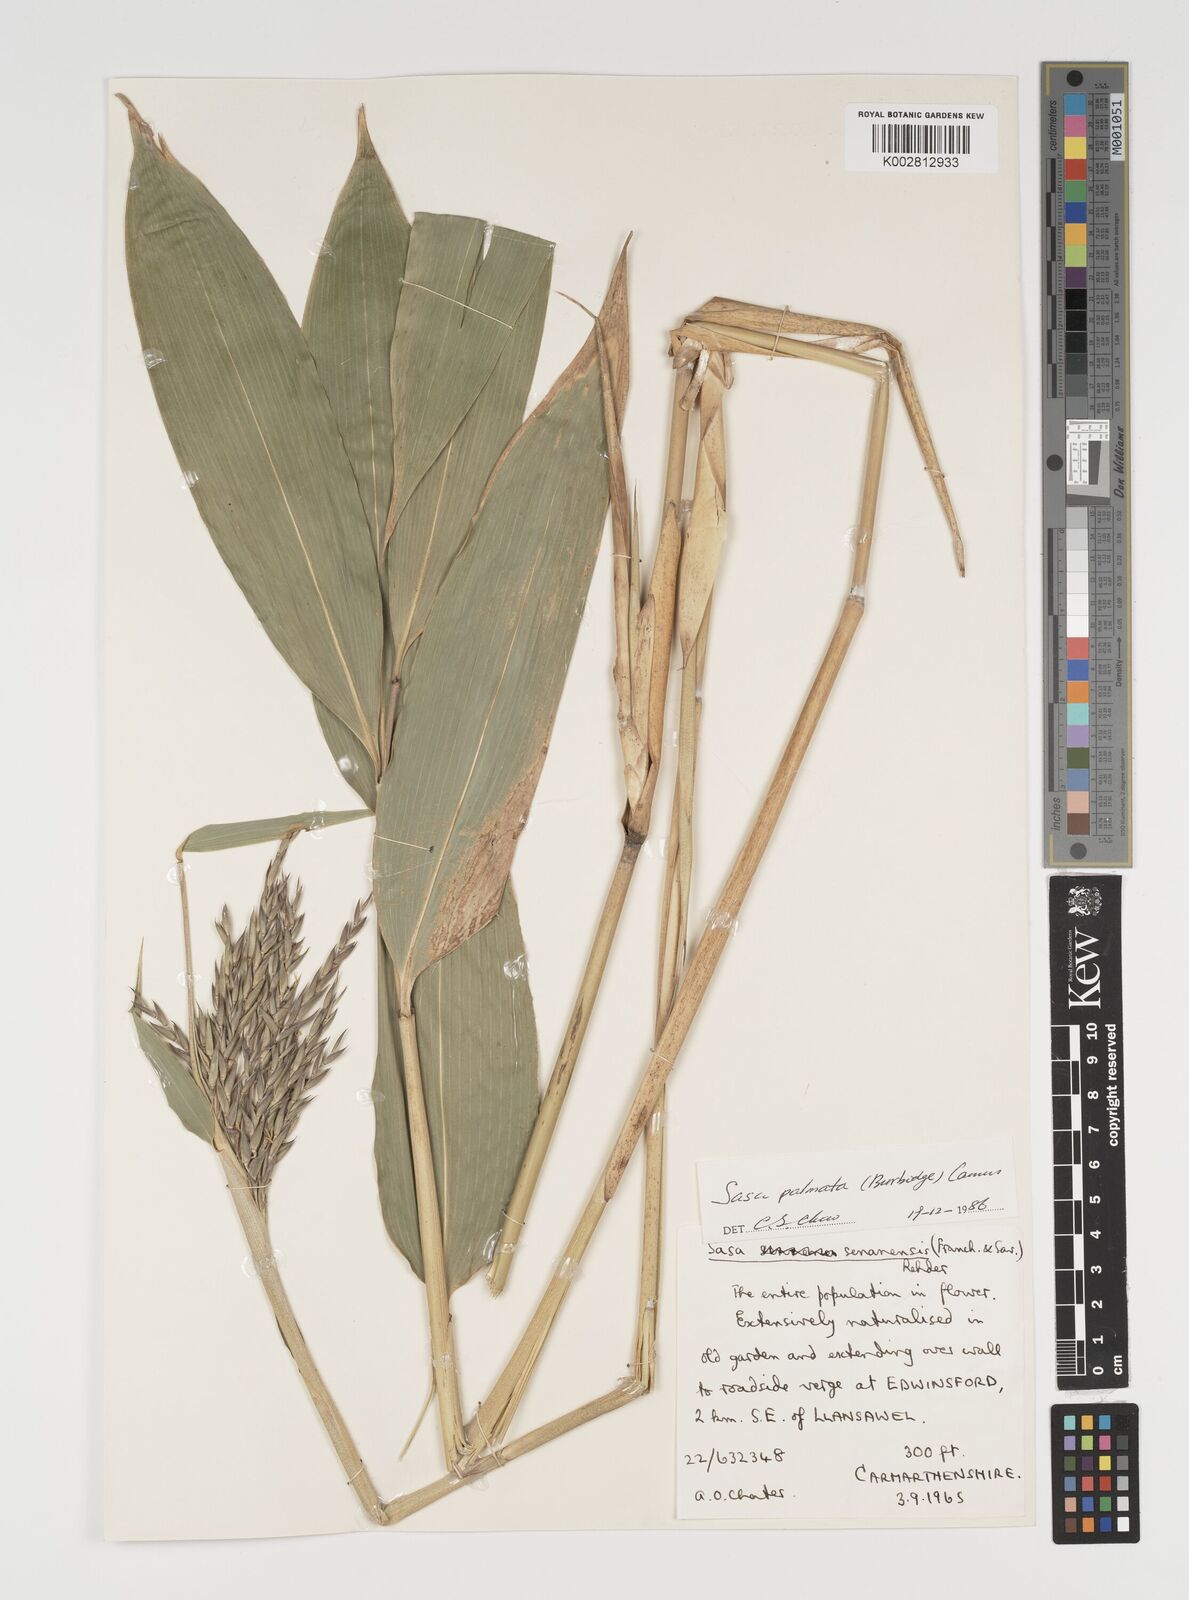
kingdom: Plantae
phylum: Tracheophyta
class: Liliopsida
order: Poales
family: Poaceae
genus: Sasa
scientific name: Sasa palmata
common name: Broad-leaved bamboo
